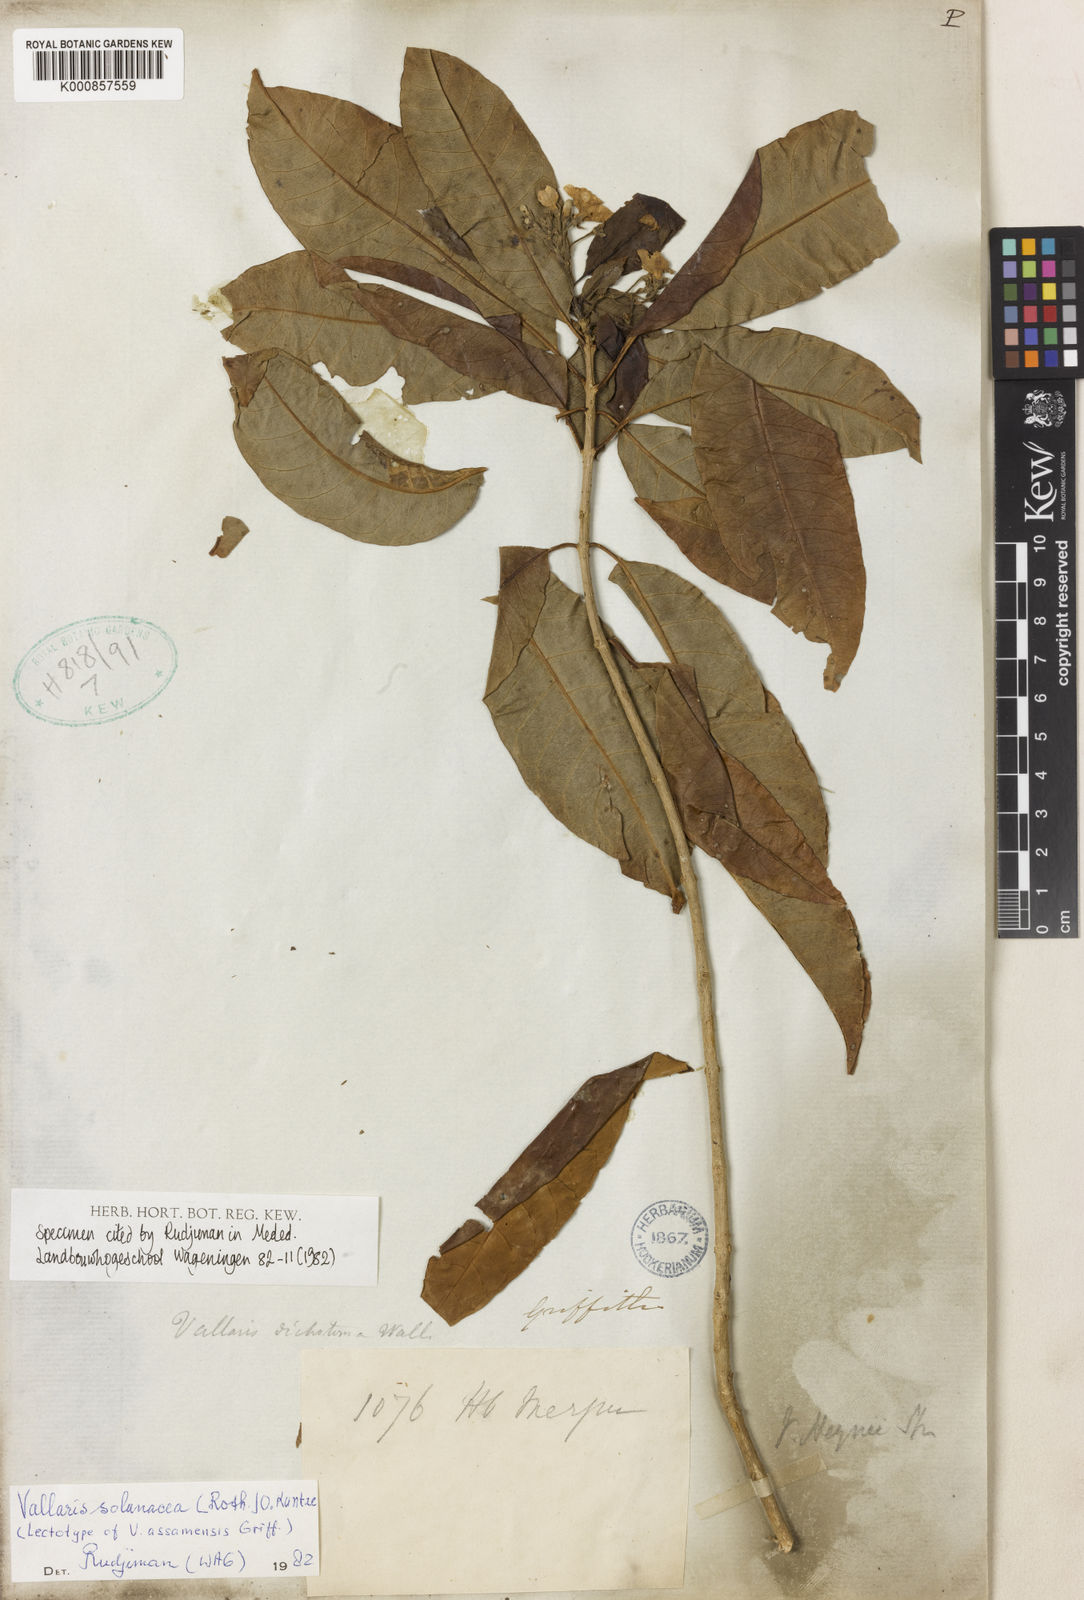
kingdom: Plantae
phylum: Tracheophyta
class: Magnoliopsida
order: Gentianales
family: Apocynaceae
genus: Vallaris
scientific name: Vallaris solanacea
